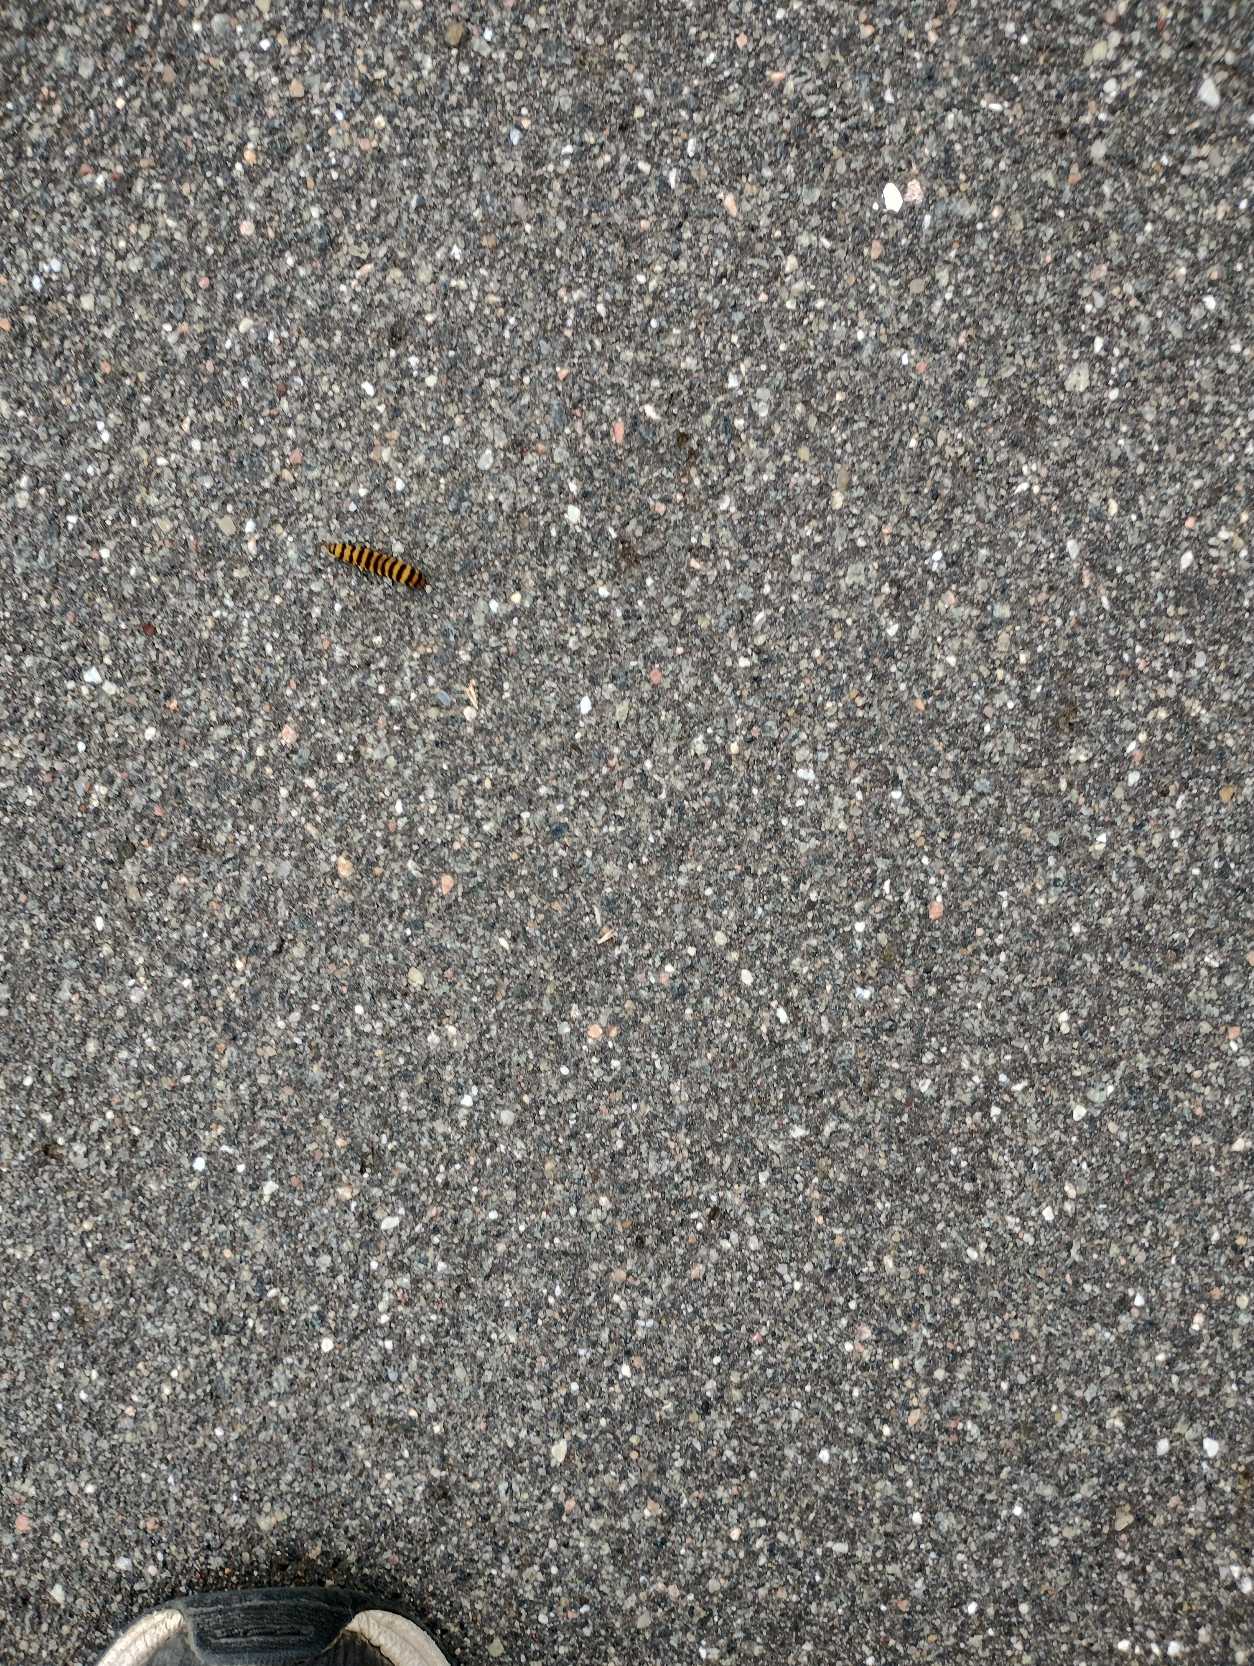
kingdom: Animalia
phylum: Arthropoda
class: Insecta
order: Lepidoptera
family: Erebidae
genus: Tyria
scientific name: Tyria jacobaeae
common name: Blodplet
